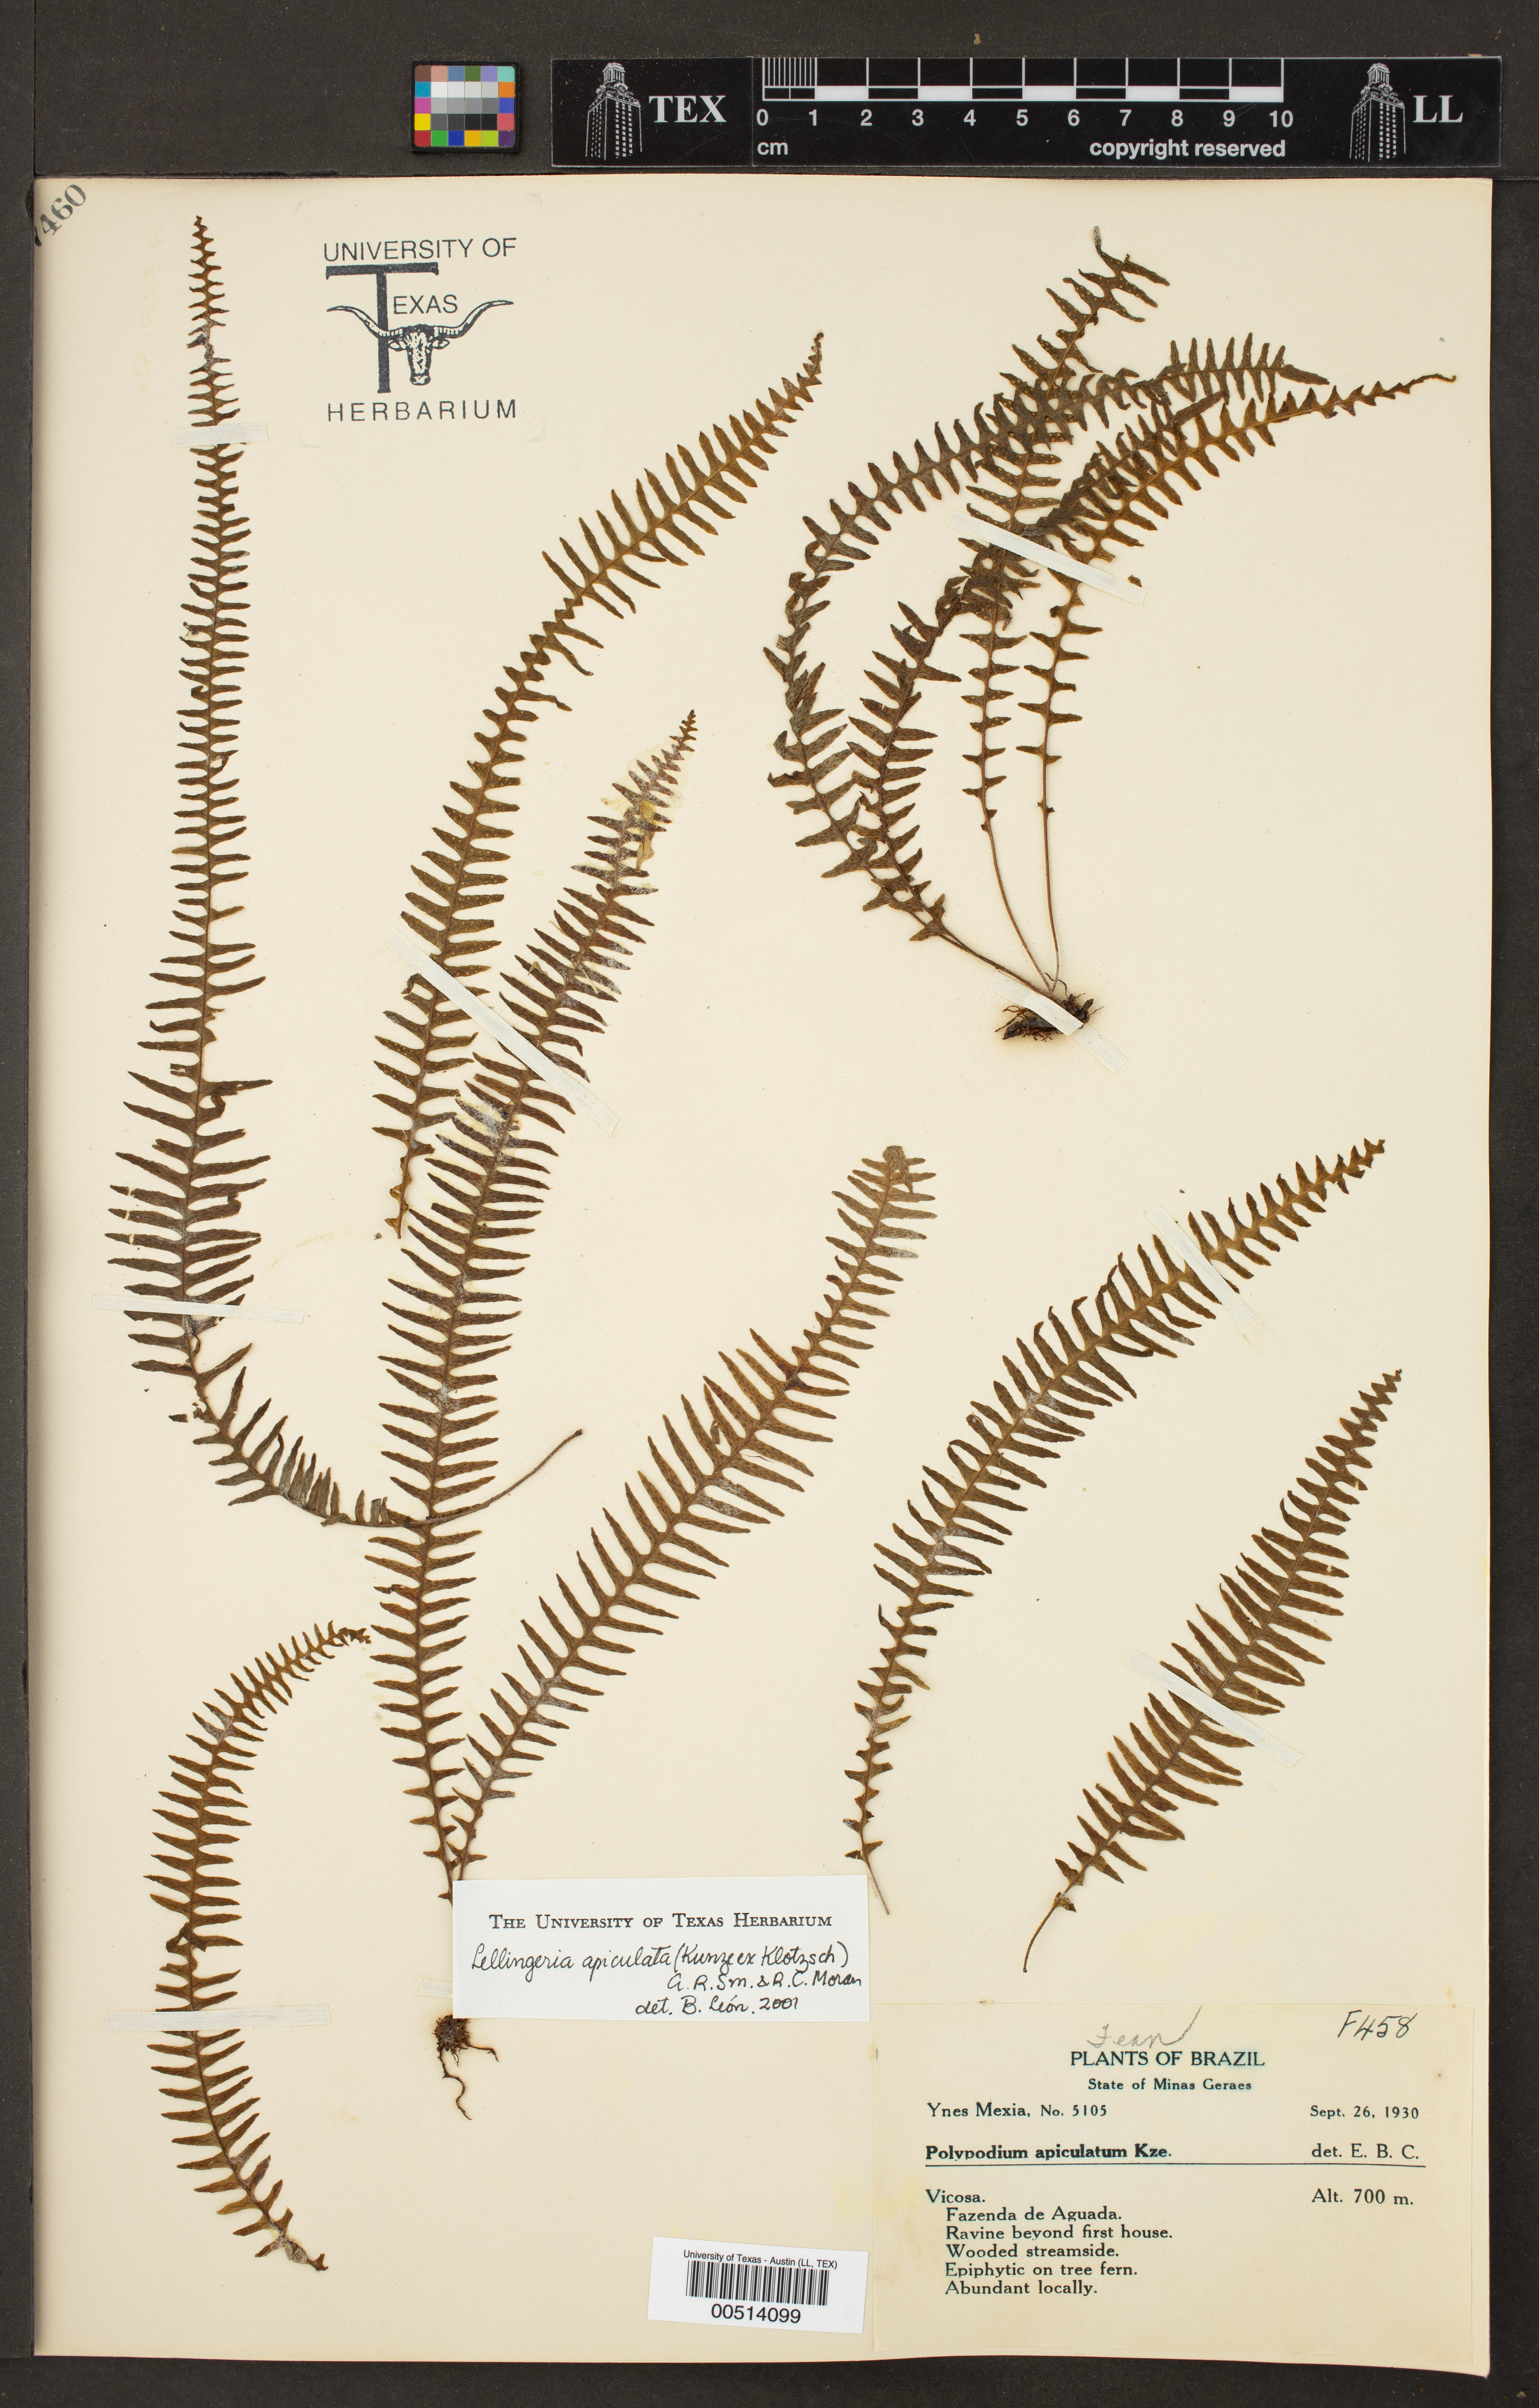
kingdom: Plantae
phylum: Tracheophyta
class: Polypodiopsida
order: Polypodiales
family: Polypodiaceae
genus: Lellingeria
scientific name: Lellingeria apiculata
